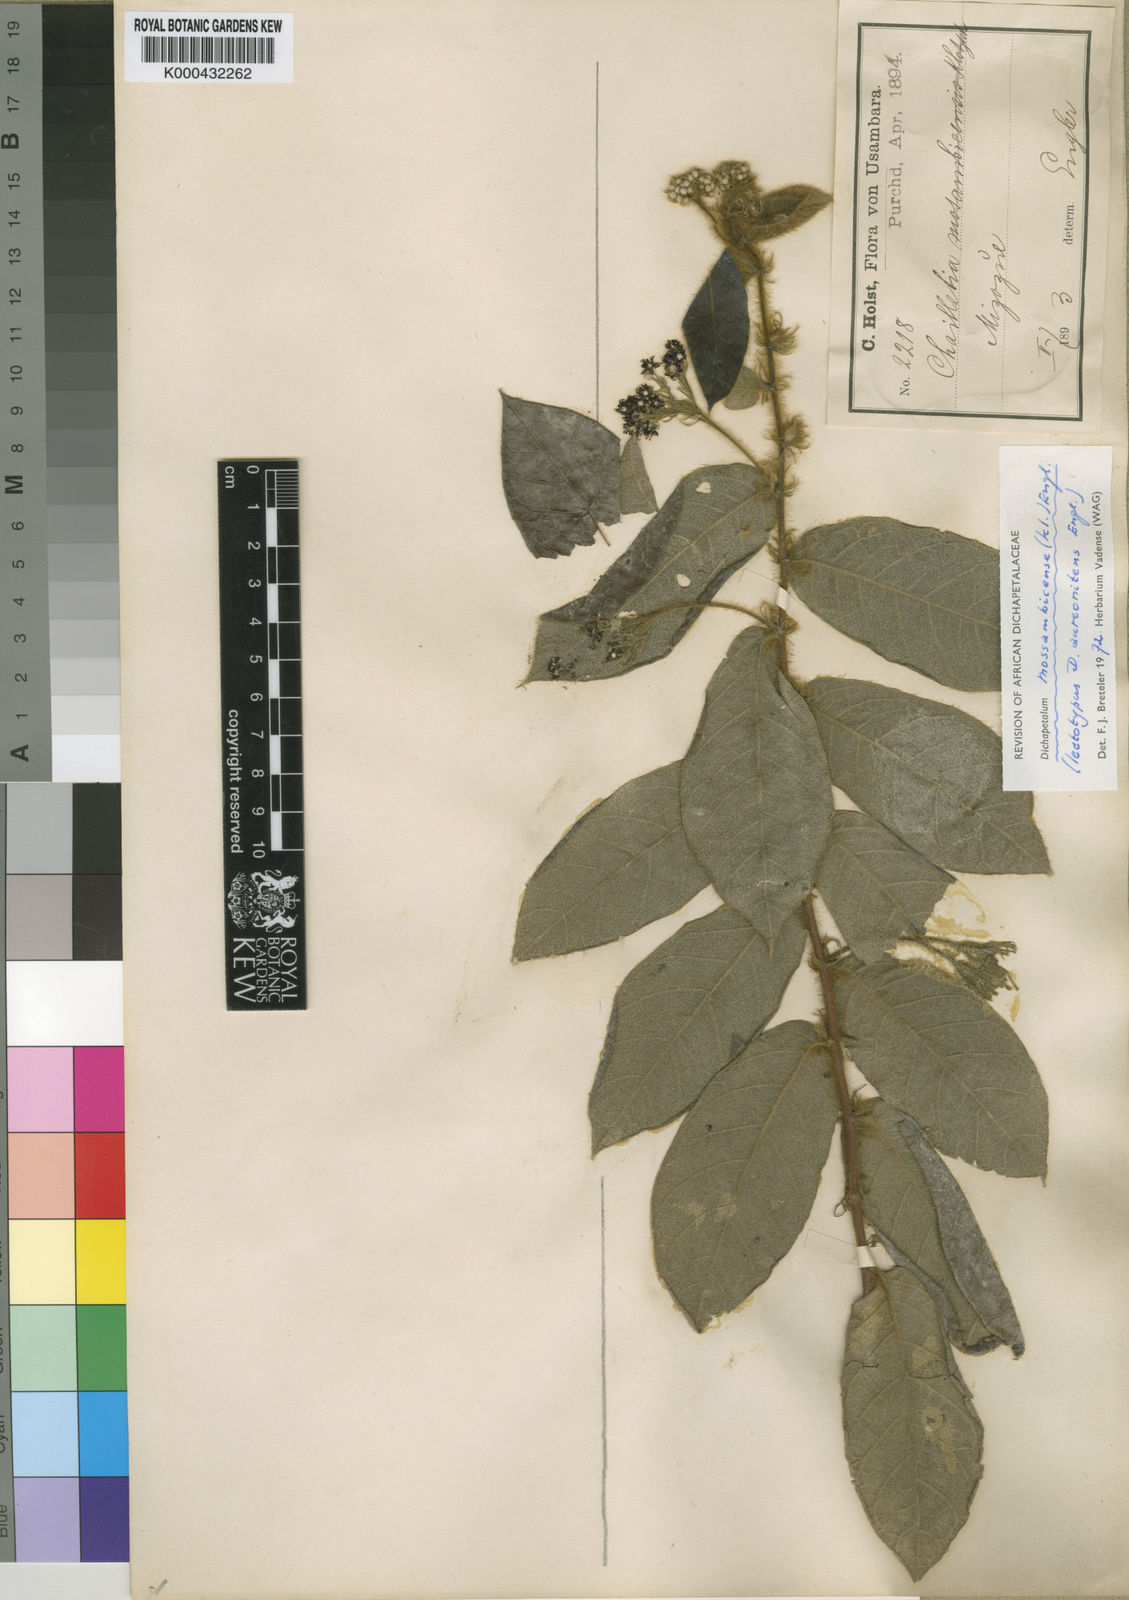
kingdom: Plantae
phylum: Tracheophyta
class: Magnoliopsida
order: Malpighiales
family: Dichapetalaceae
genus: Dichapetalum
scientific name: Dichapetalum mossambicense
